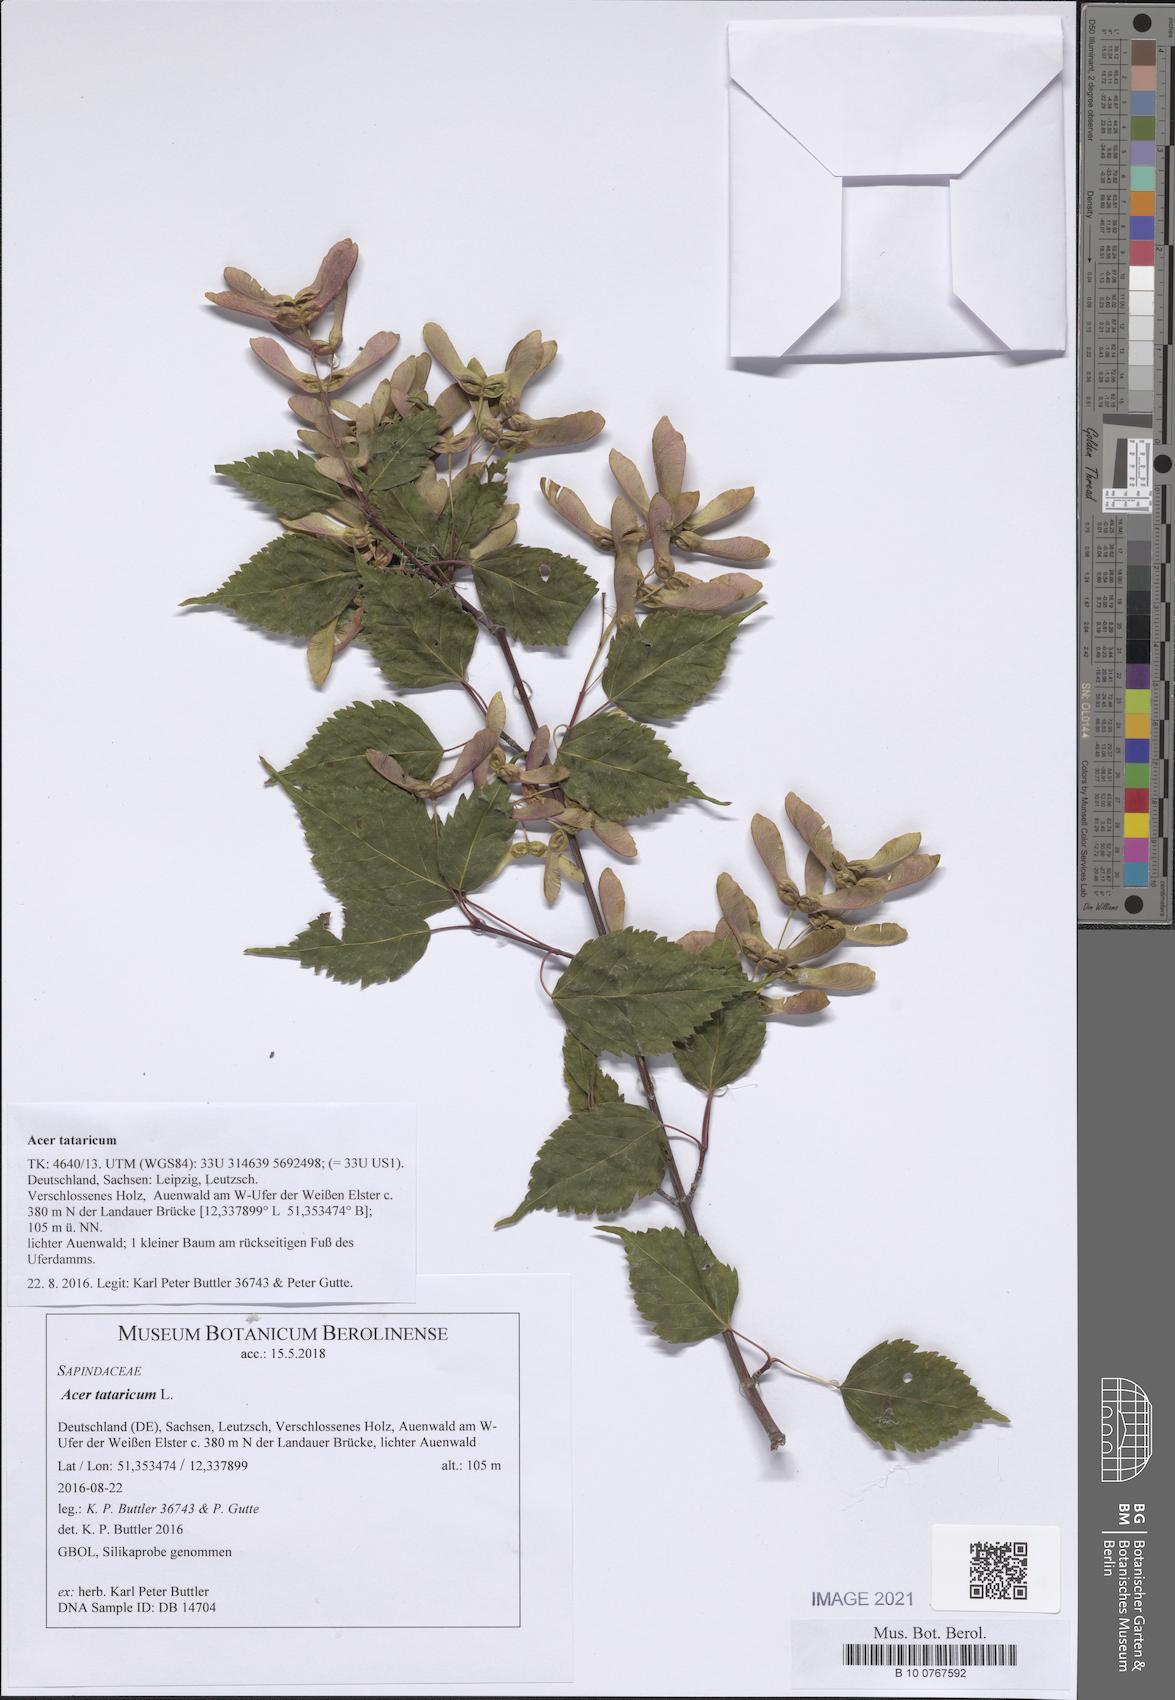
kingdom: Plantae
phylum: Tracheophyta
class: Magnoliopsida
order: Sapindales
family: Sapindaceae
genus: Acer
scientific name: Acer tataricum
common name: Tartar maple
